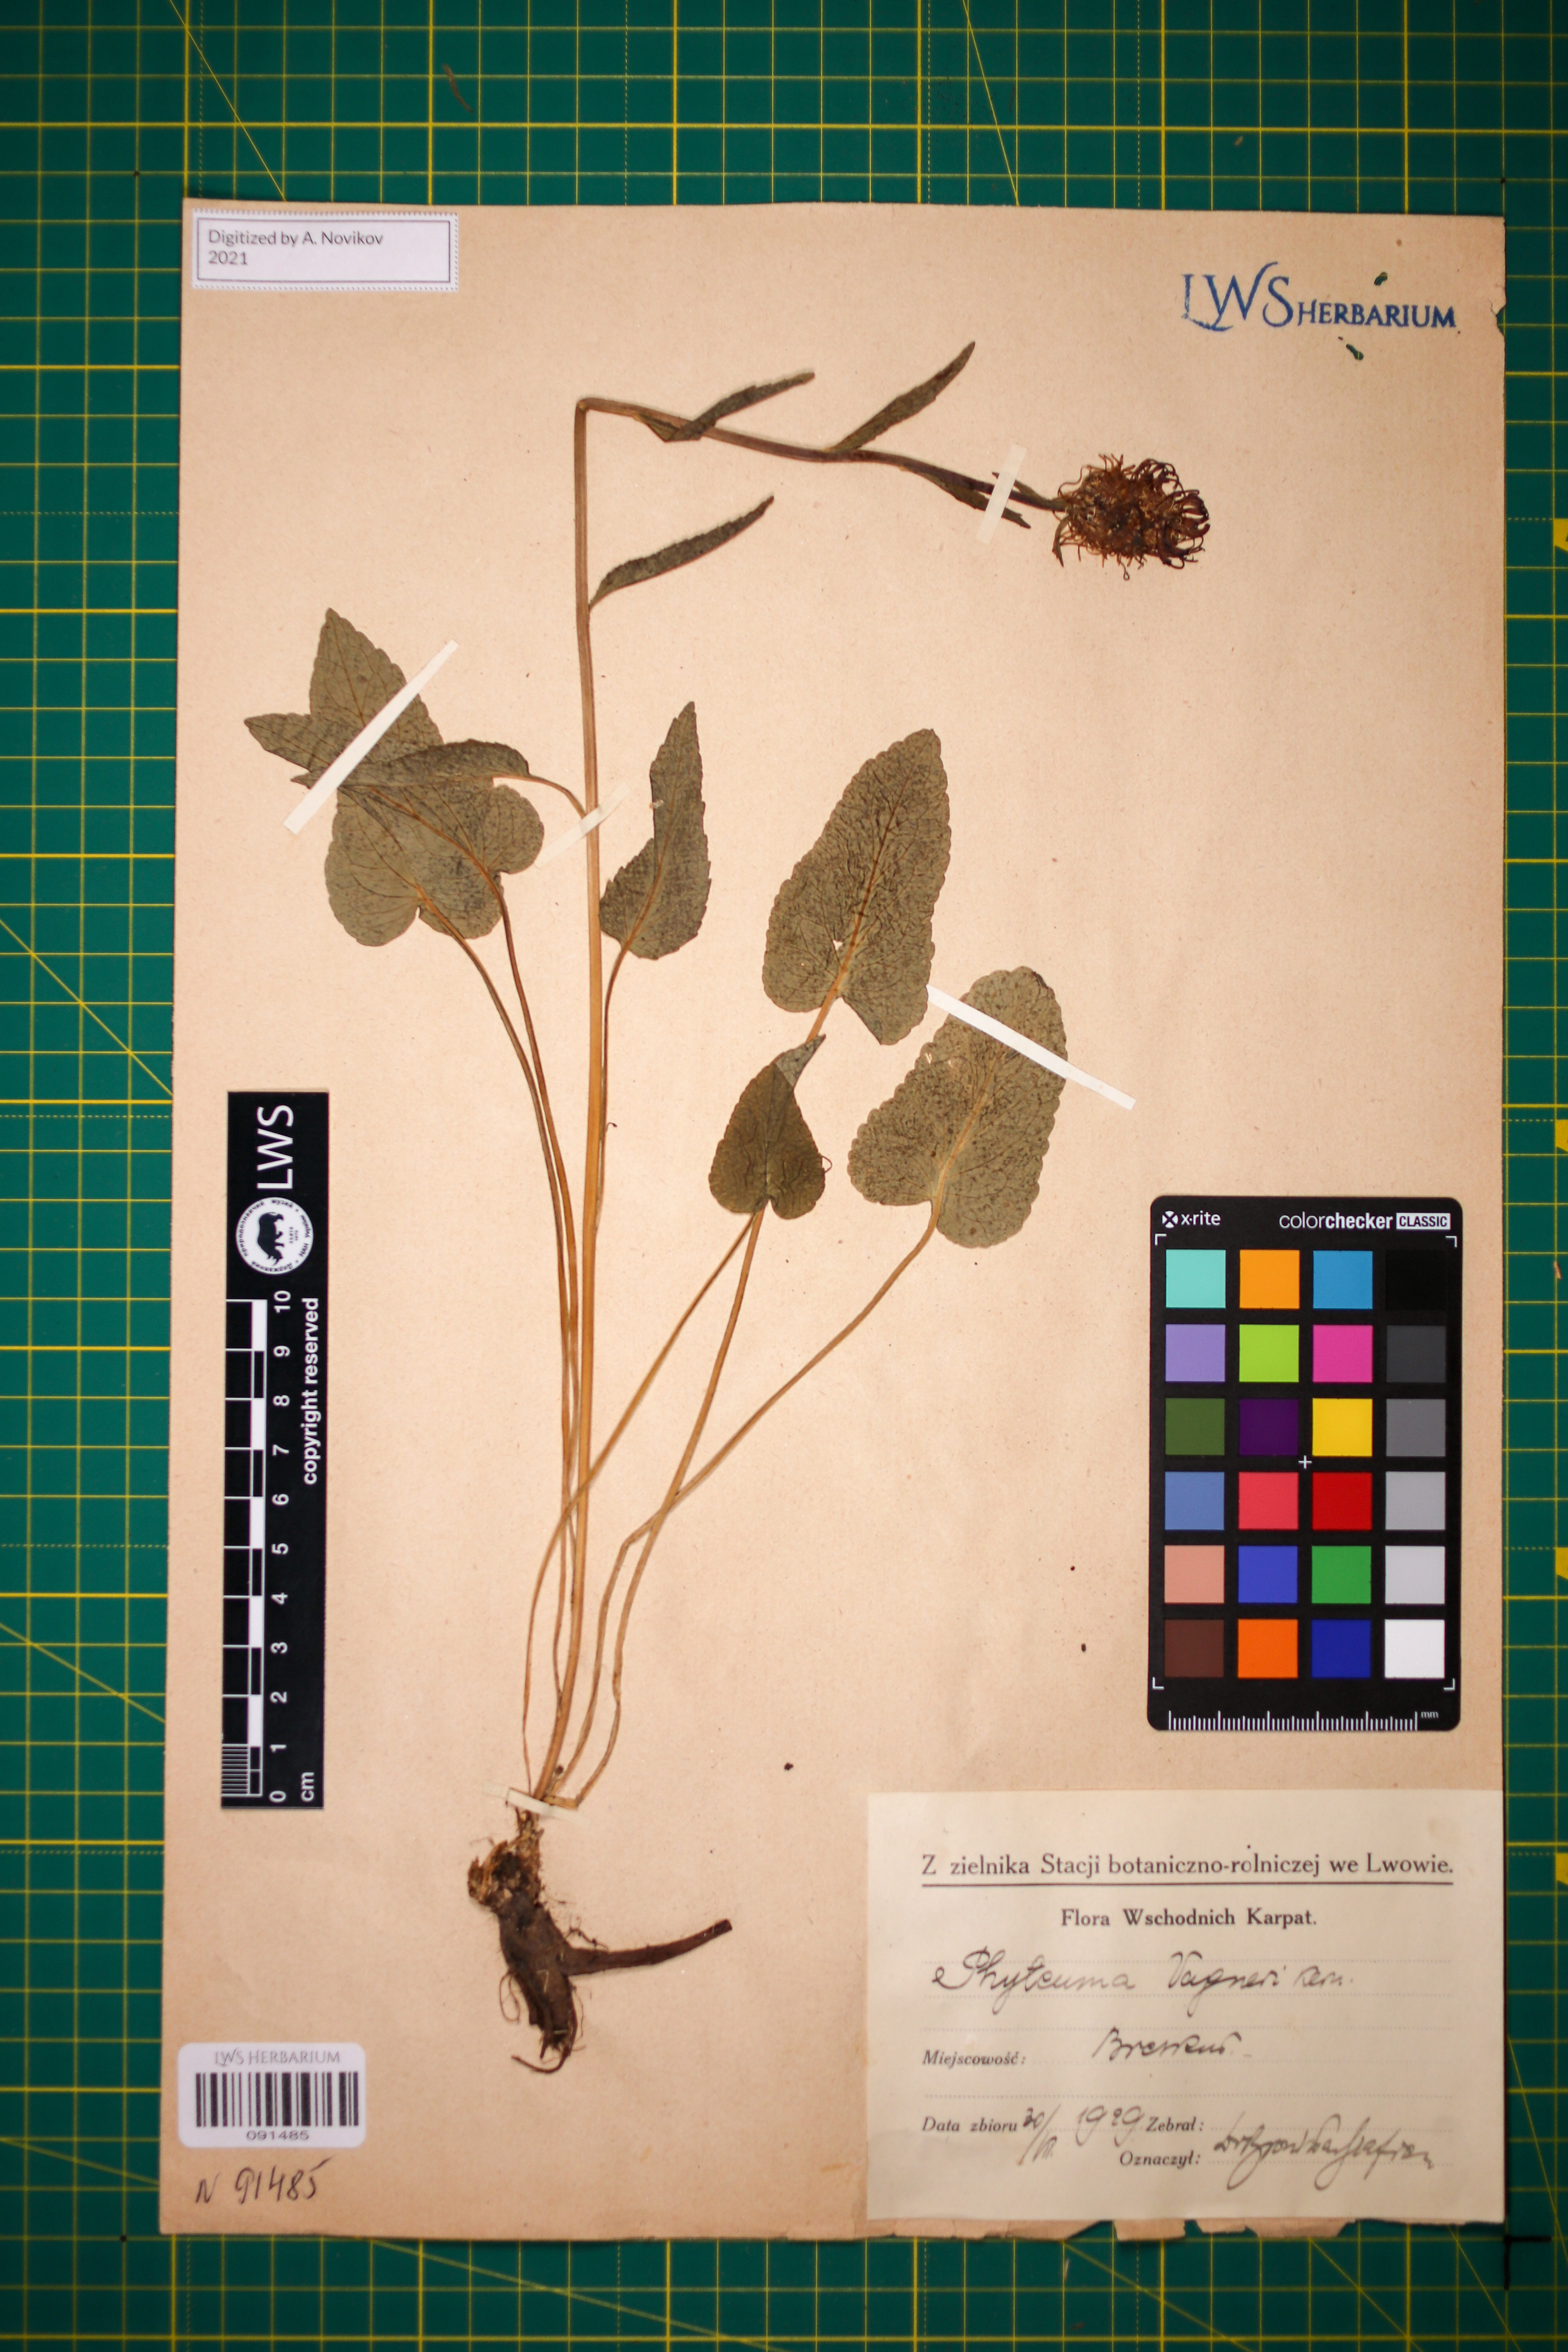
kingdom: Plantae
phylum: Tracheophyta
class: Magnoliopsida
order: Asterales
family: Campanulaceae
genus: Phyteuma
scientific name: Phyteuma vagneri
